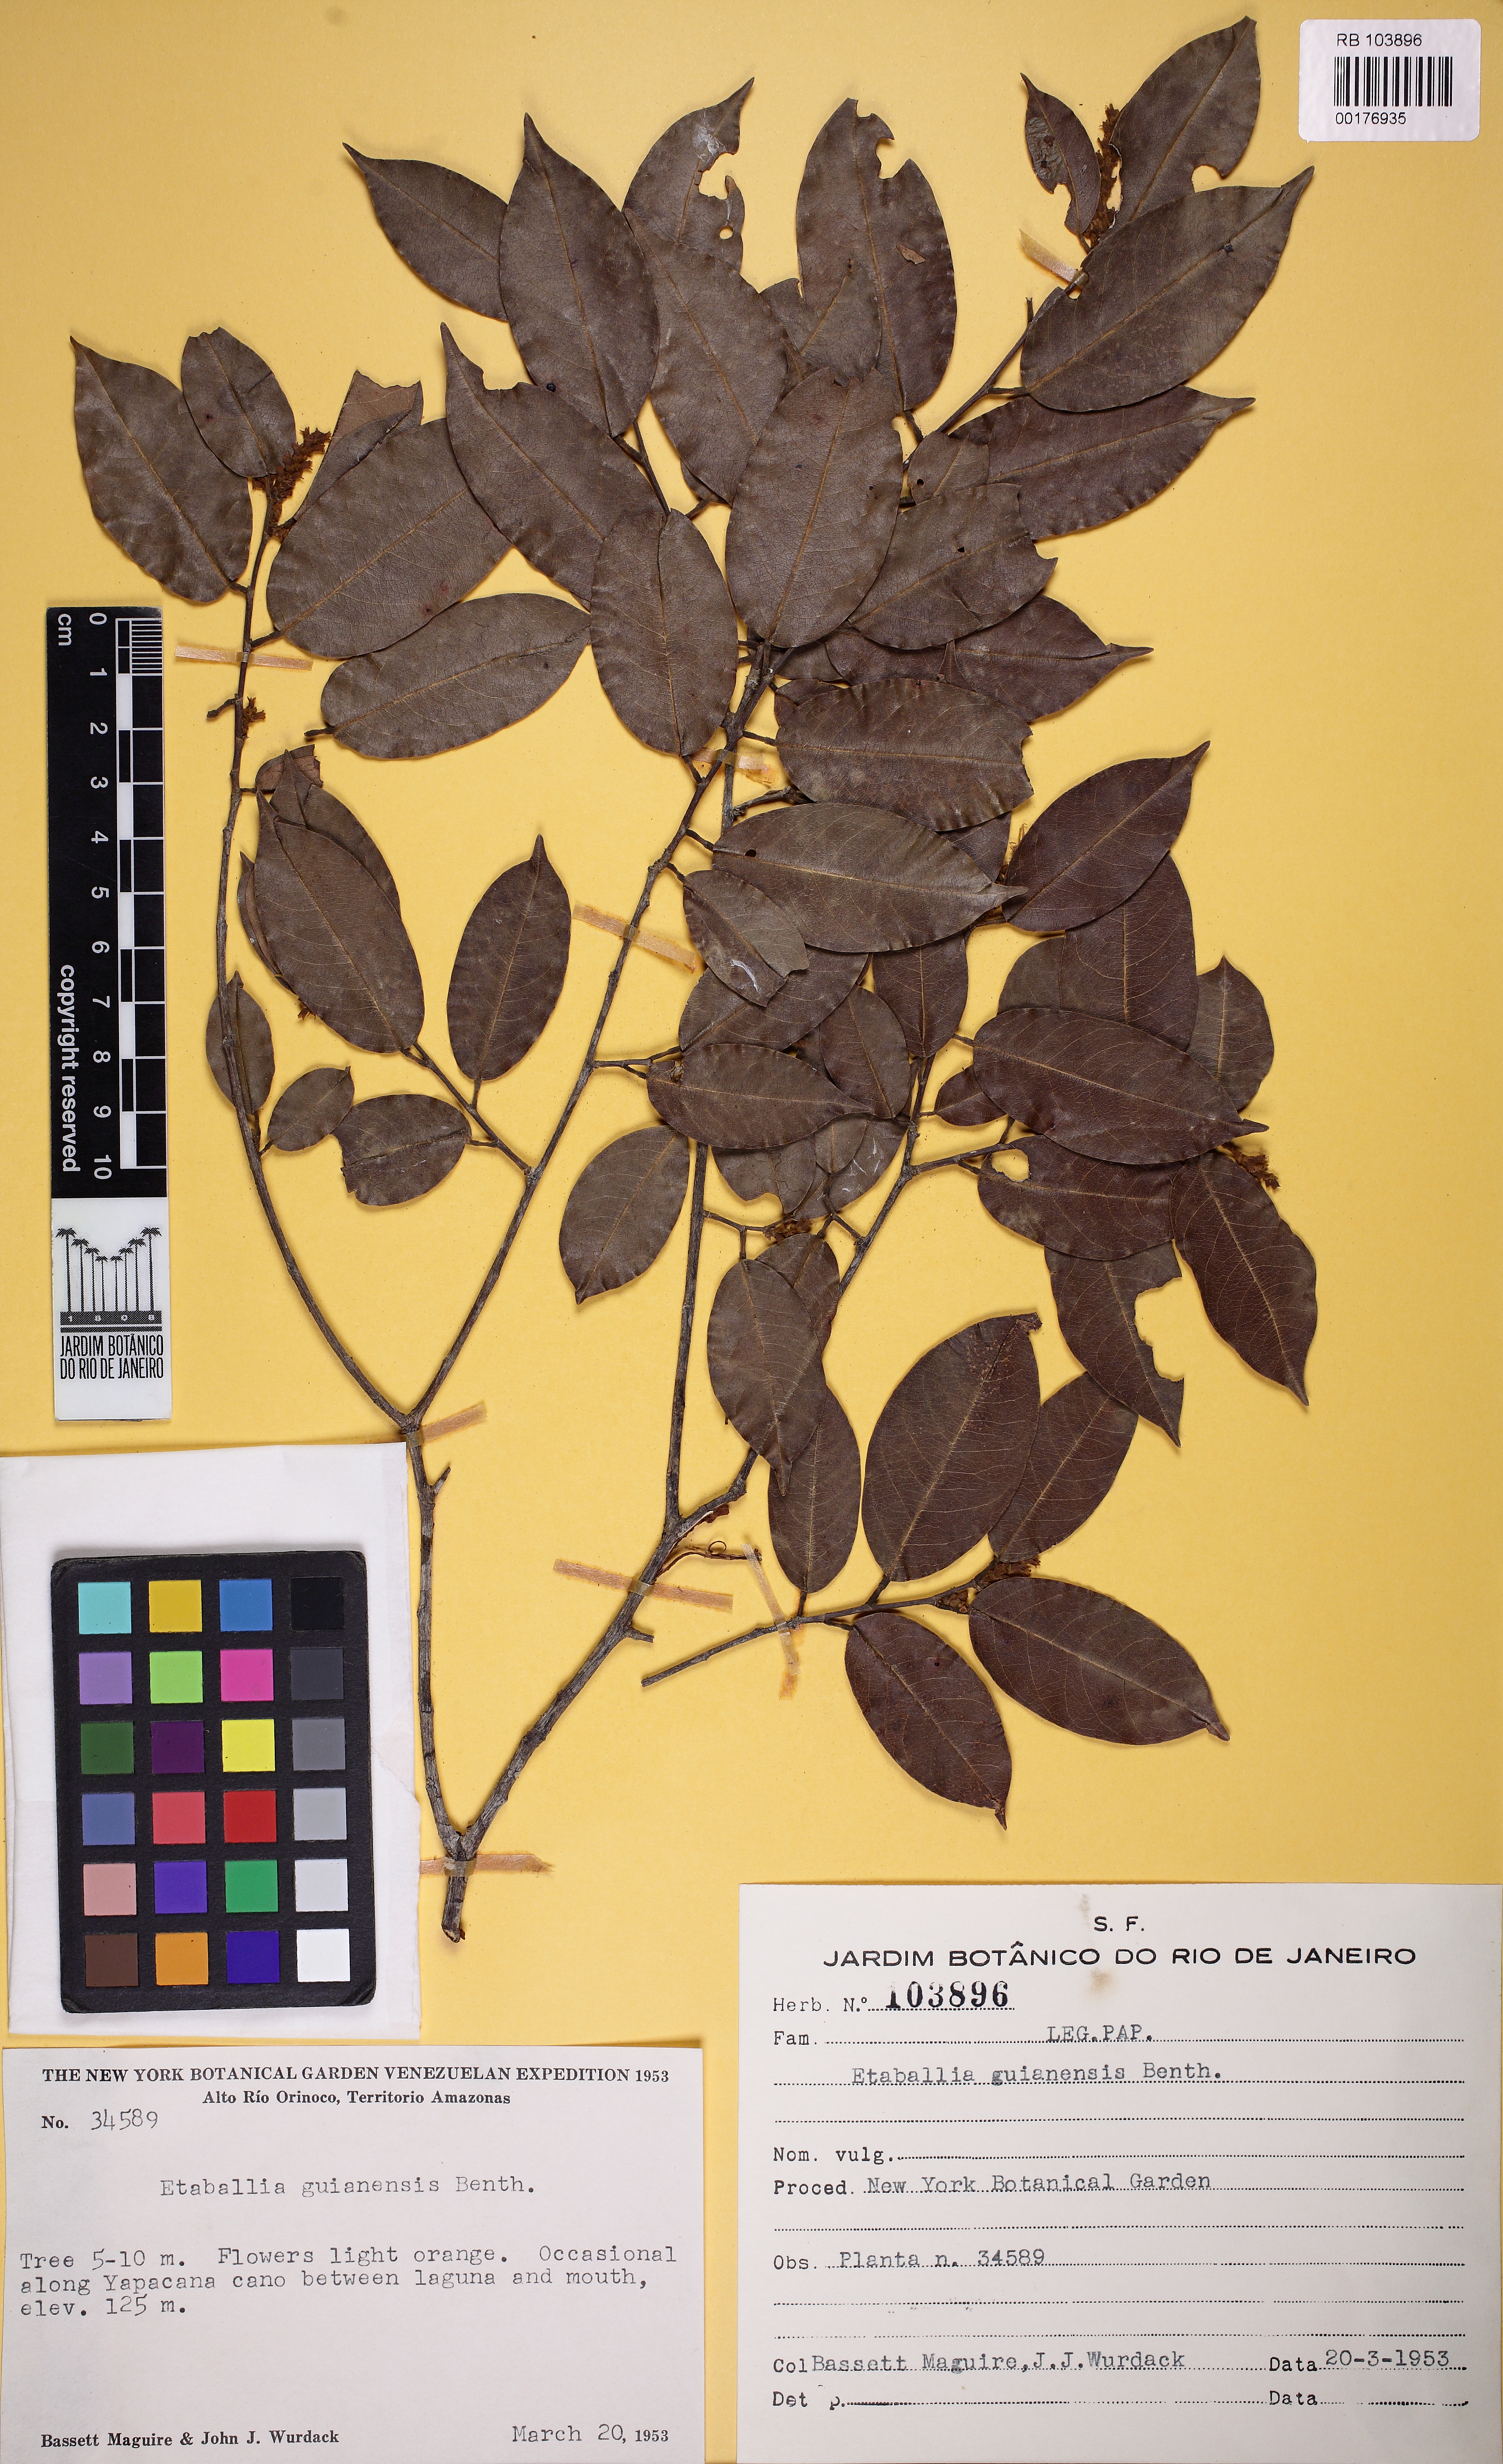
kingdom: Plantae
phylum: Tracheophyta
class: Magnoliopsida
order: Fabales
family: Fabaceae
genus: Pterocarpus
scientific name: Pterocarpus dubius
